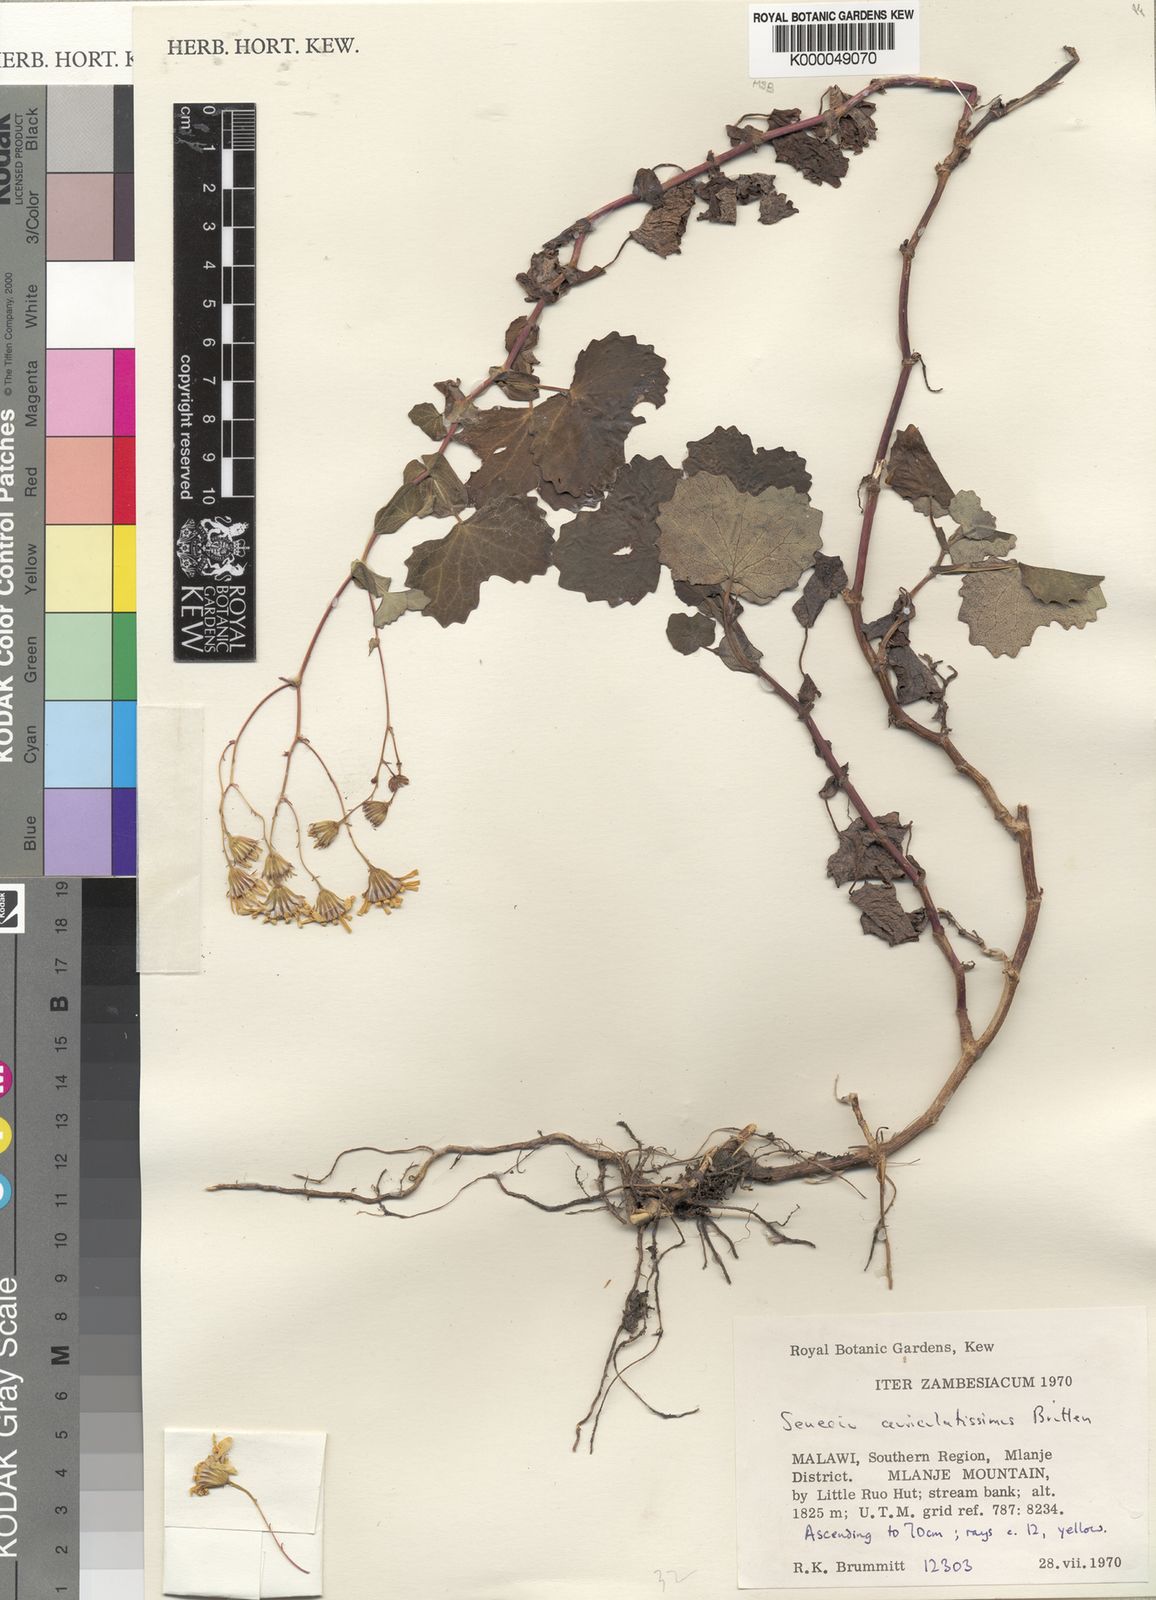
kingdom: Plantae
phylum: Tracheophyta
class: Magnoliopsida
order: Asterales
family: Asteraceae
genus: Senecio
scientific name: Senecio auriculatissimus
